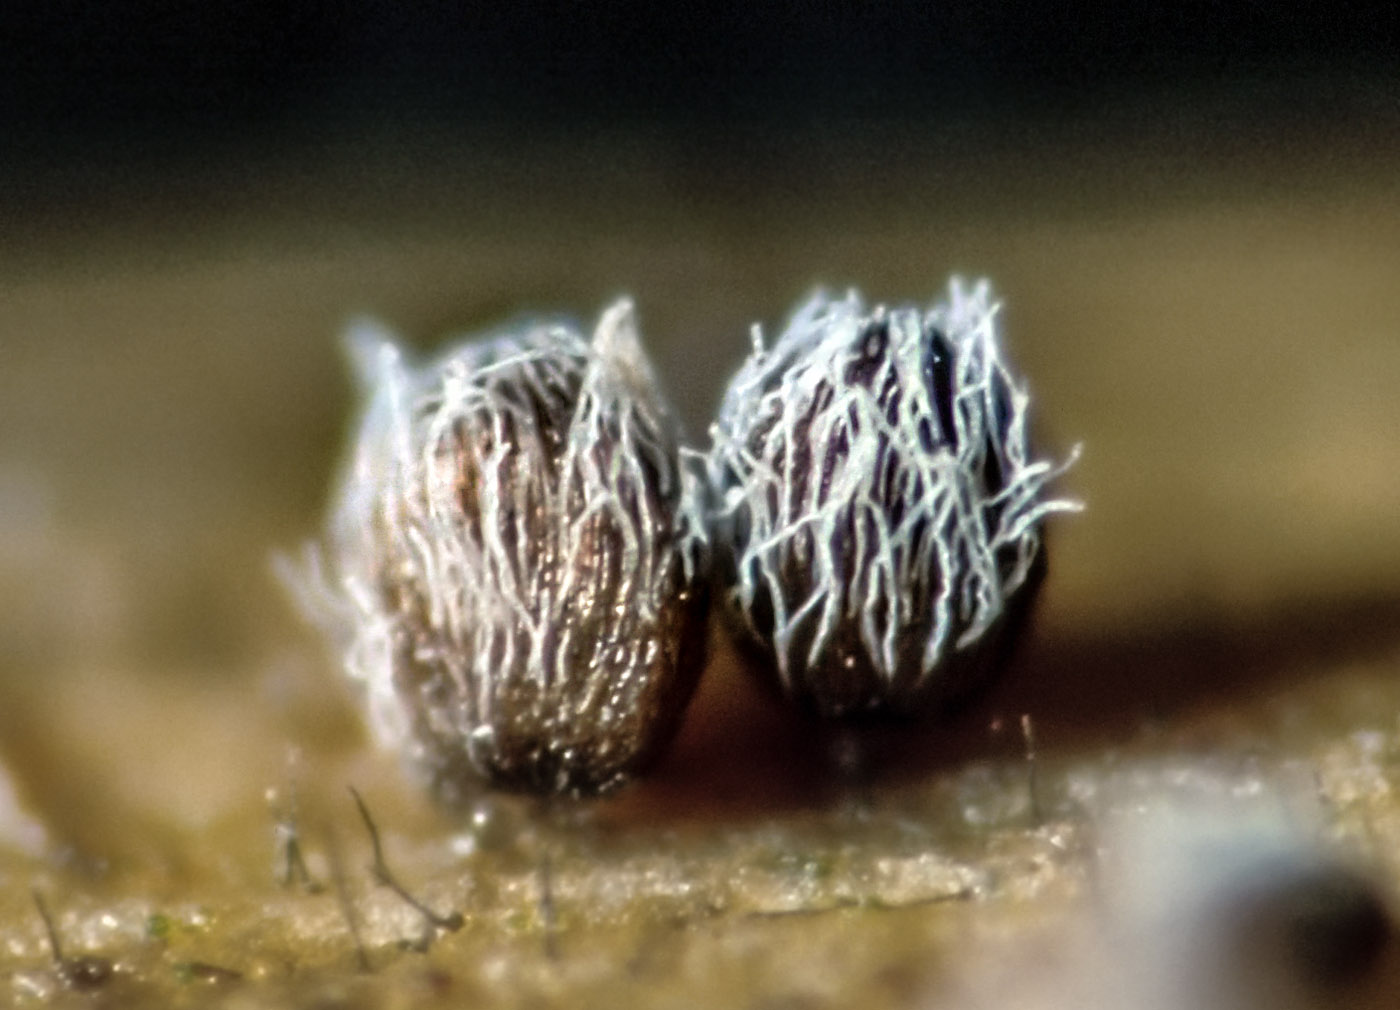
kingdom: Fungi
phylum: Basidiomycota
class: Agaricomycetes
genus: Akenomyces
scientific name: Akenomyces costatus
